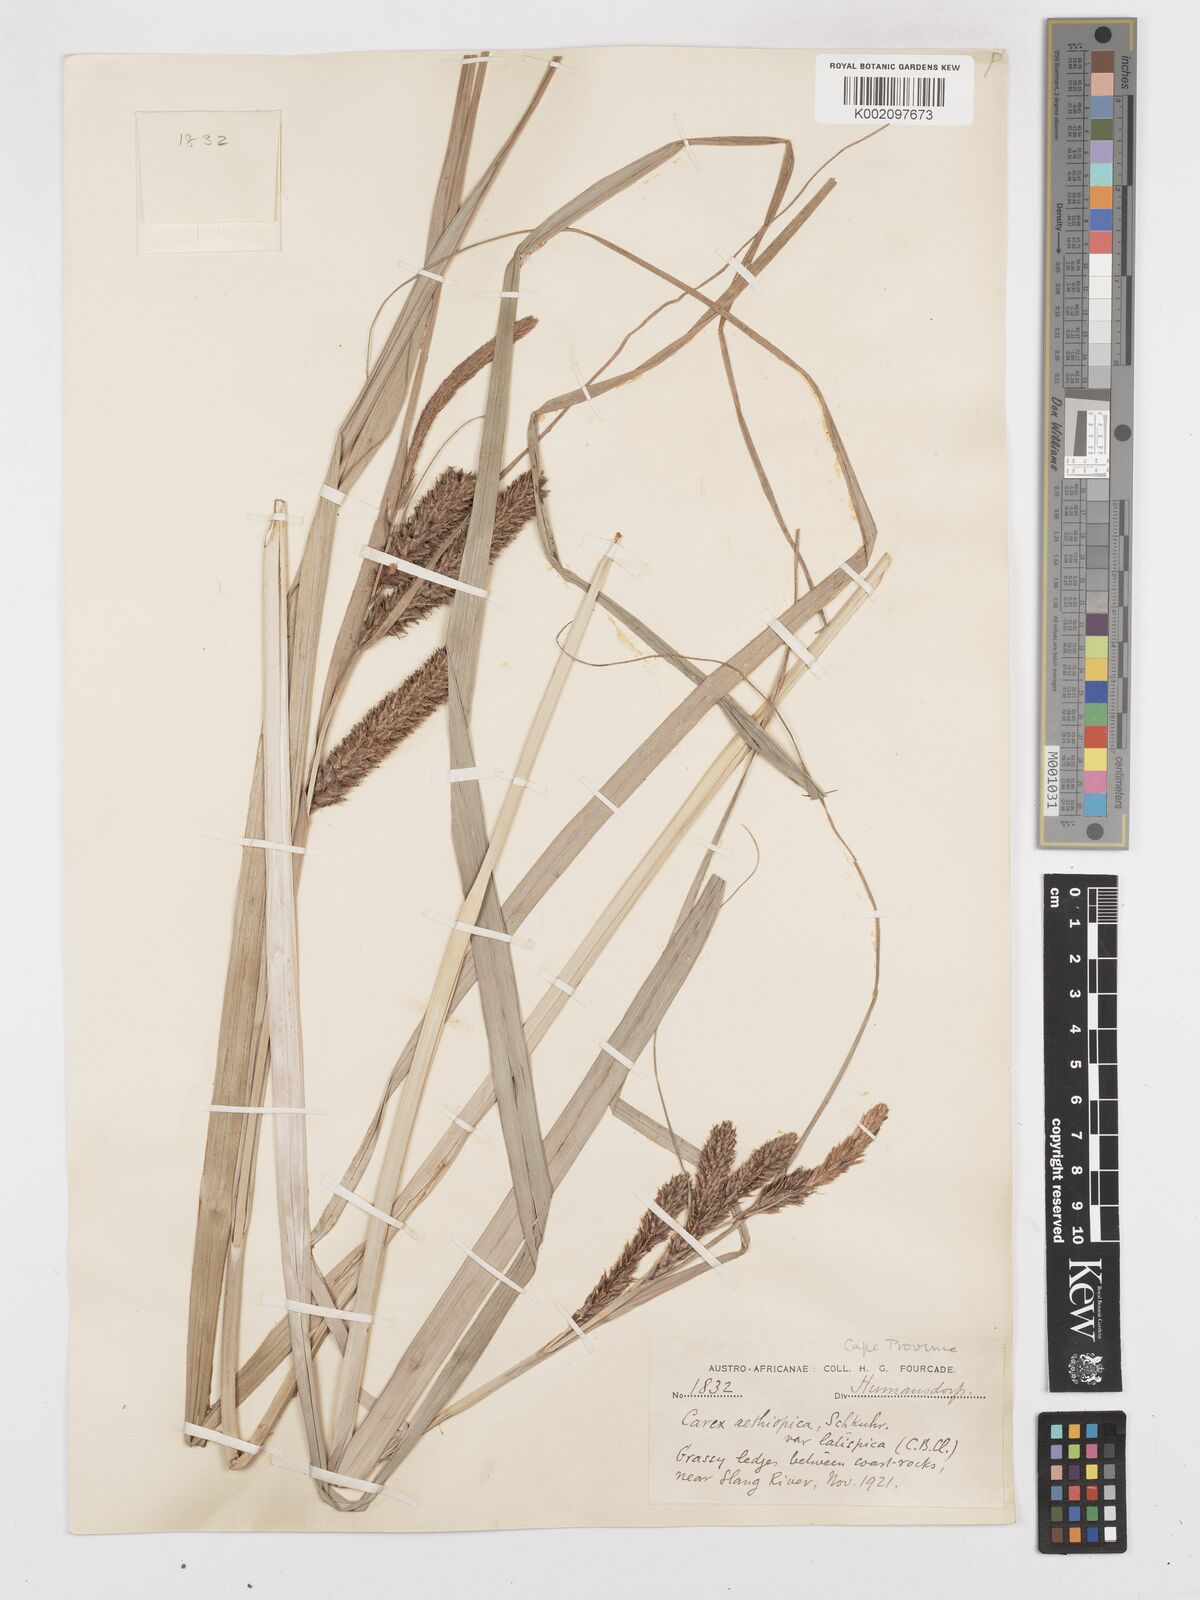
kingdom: Plantae
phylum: Tracheophyta
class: Liliopsida
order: Poales
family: Cyperaceae
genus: Carex
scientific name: Carex clavata
